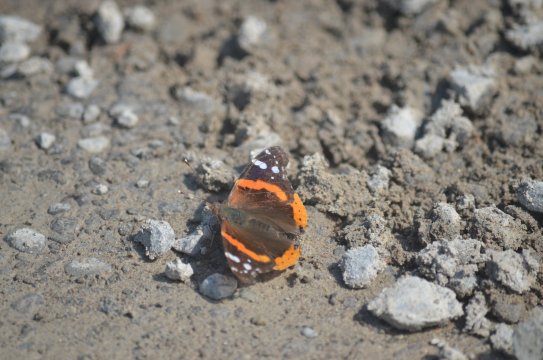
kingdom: Animalia
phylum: Arthropoda
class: Insecta
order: Lepidoptera
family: Nymphalidae
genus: Vanessa
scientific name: Vanessa atalanta
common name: Red Admiral
